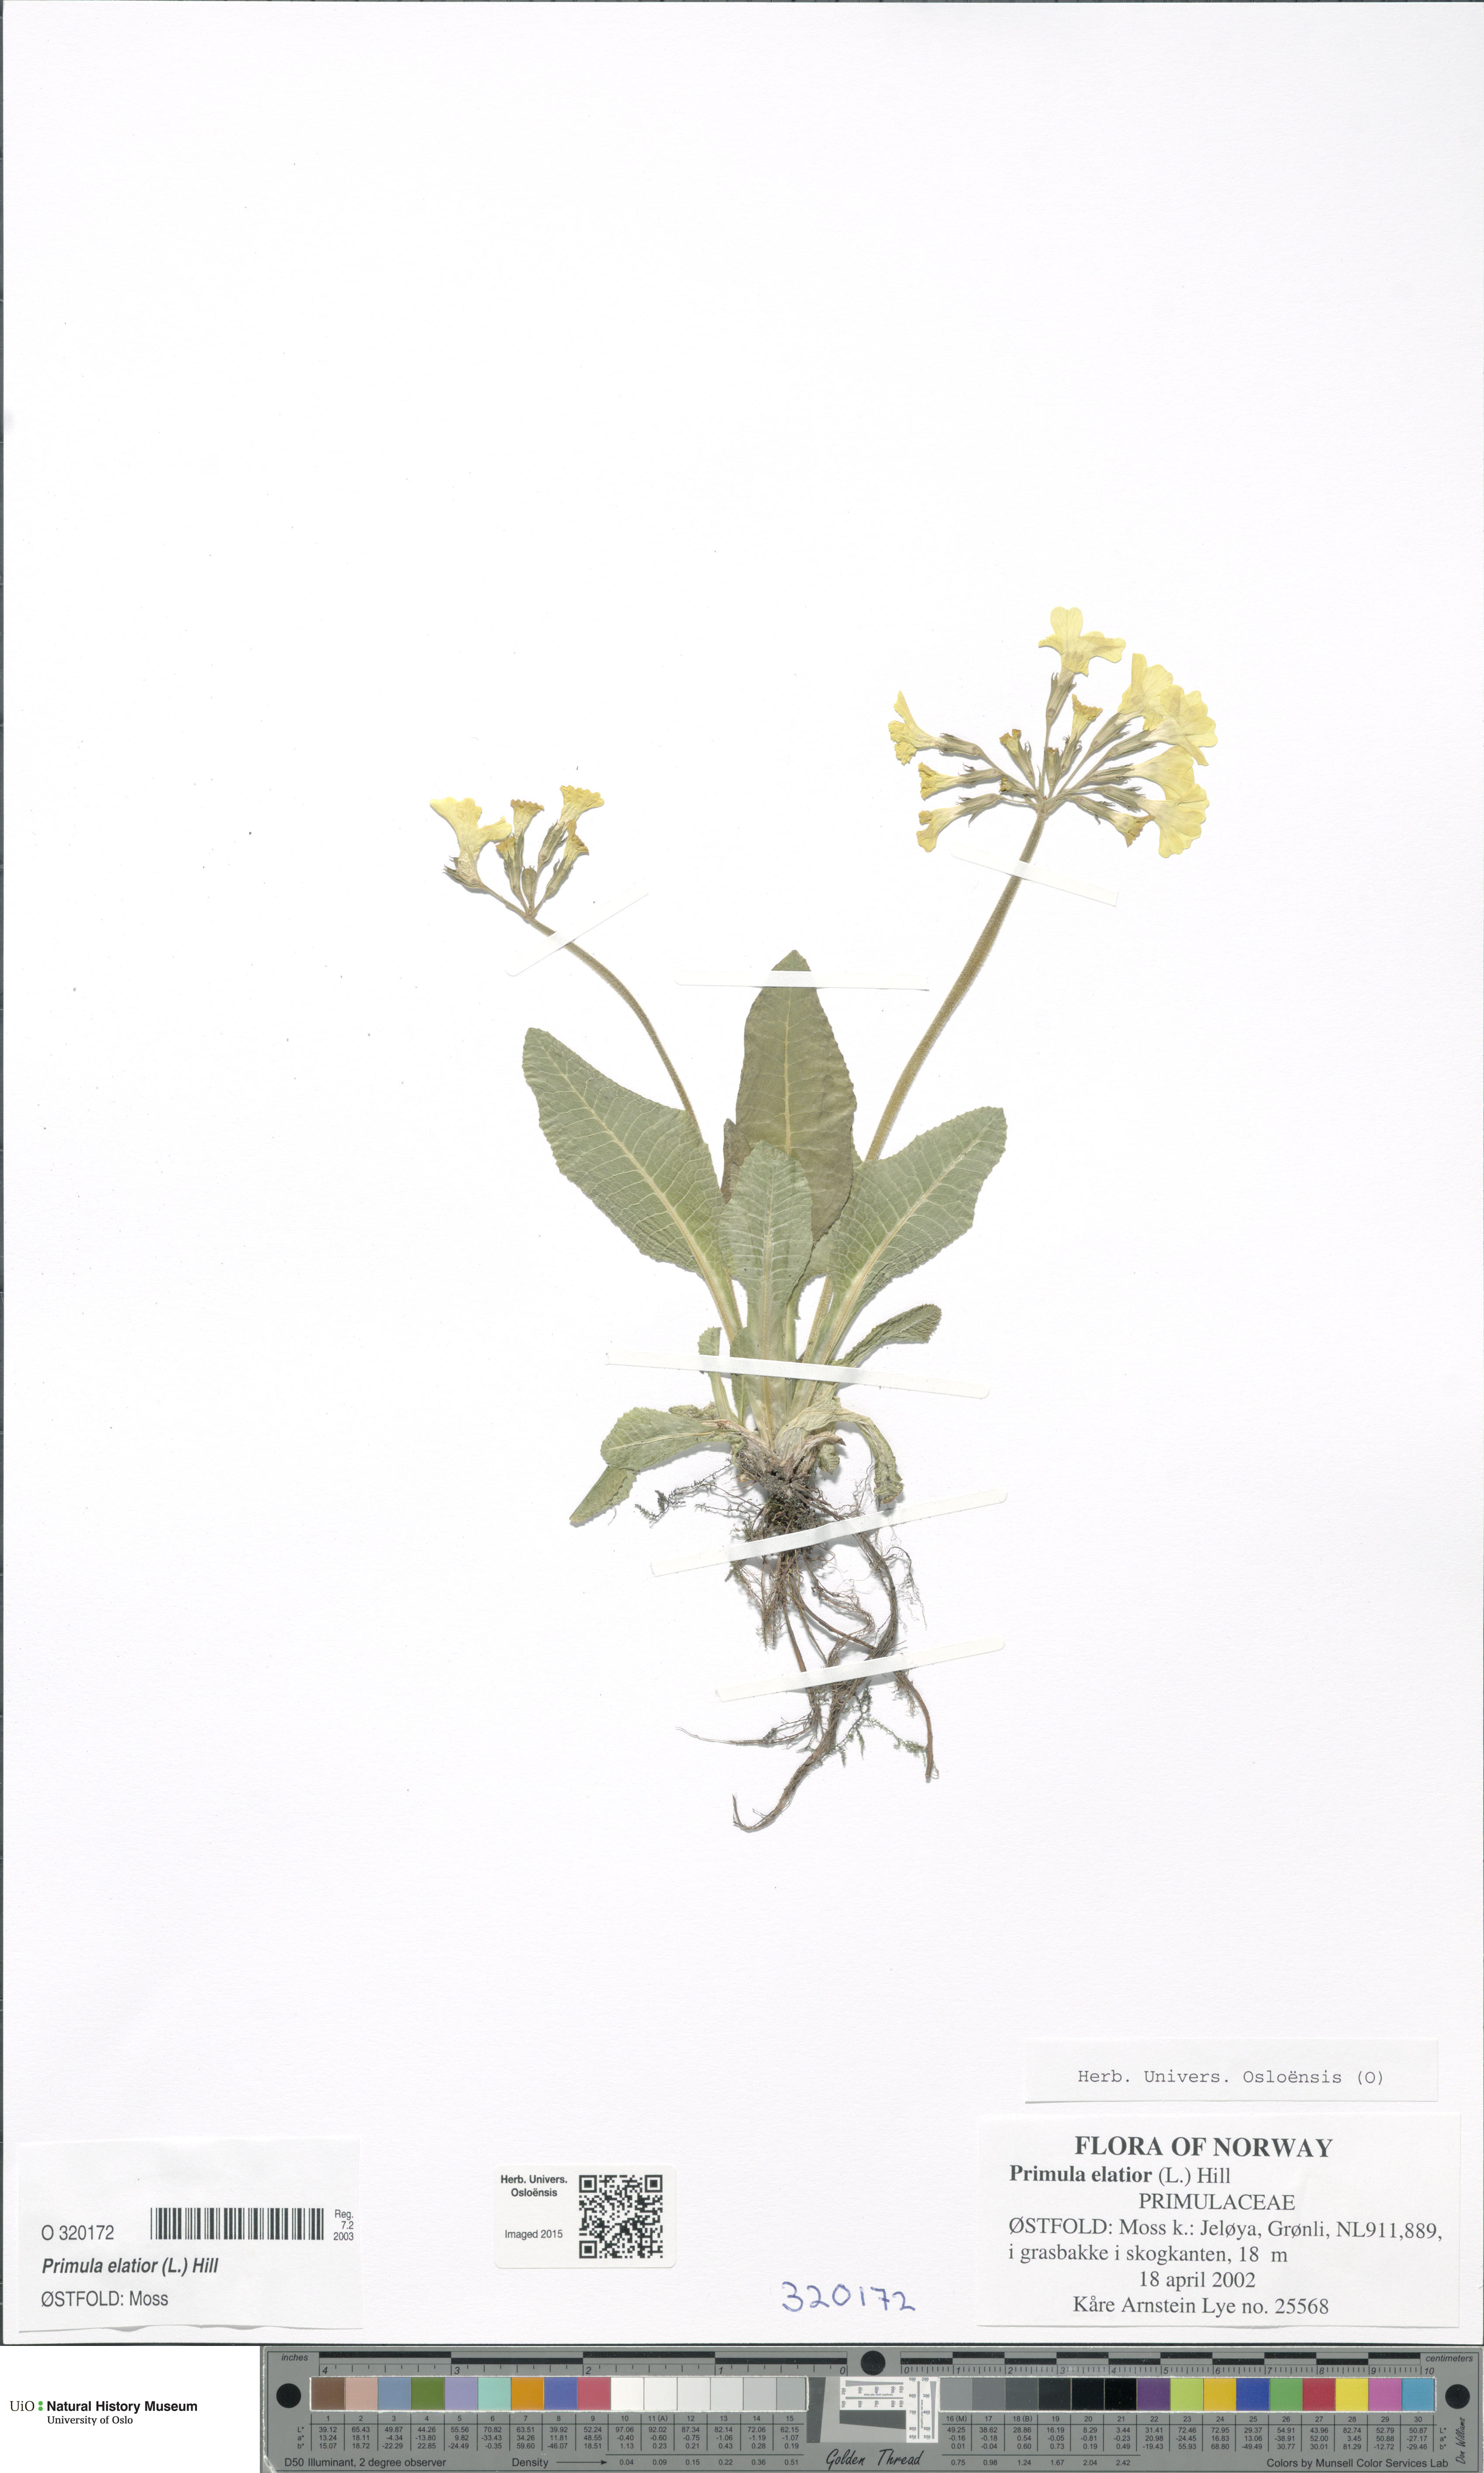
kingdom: Plantae
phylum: Tracheophyta
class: Magnoliopsida
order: Ericales
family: Primulaceae
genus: Primula
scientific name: Primula elatior
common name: Oxlip
